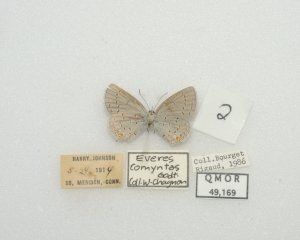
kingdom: Animalia
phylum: Arthropoda
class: Insecta
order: Lepidoptera
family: Lycaenidae
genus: Elkalyce
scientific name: Elkalyce comyntas
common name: Eastern Tailed-Blue
